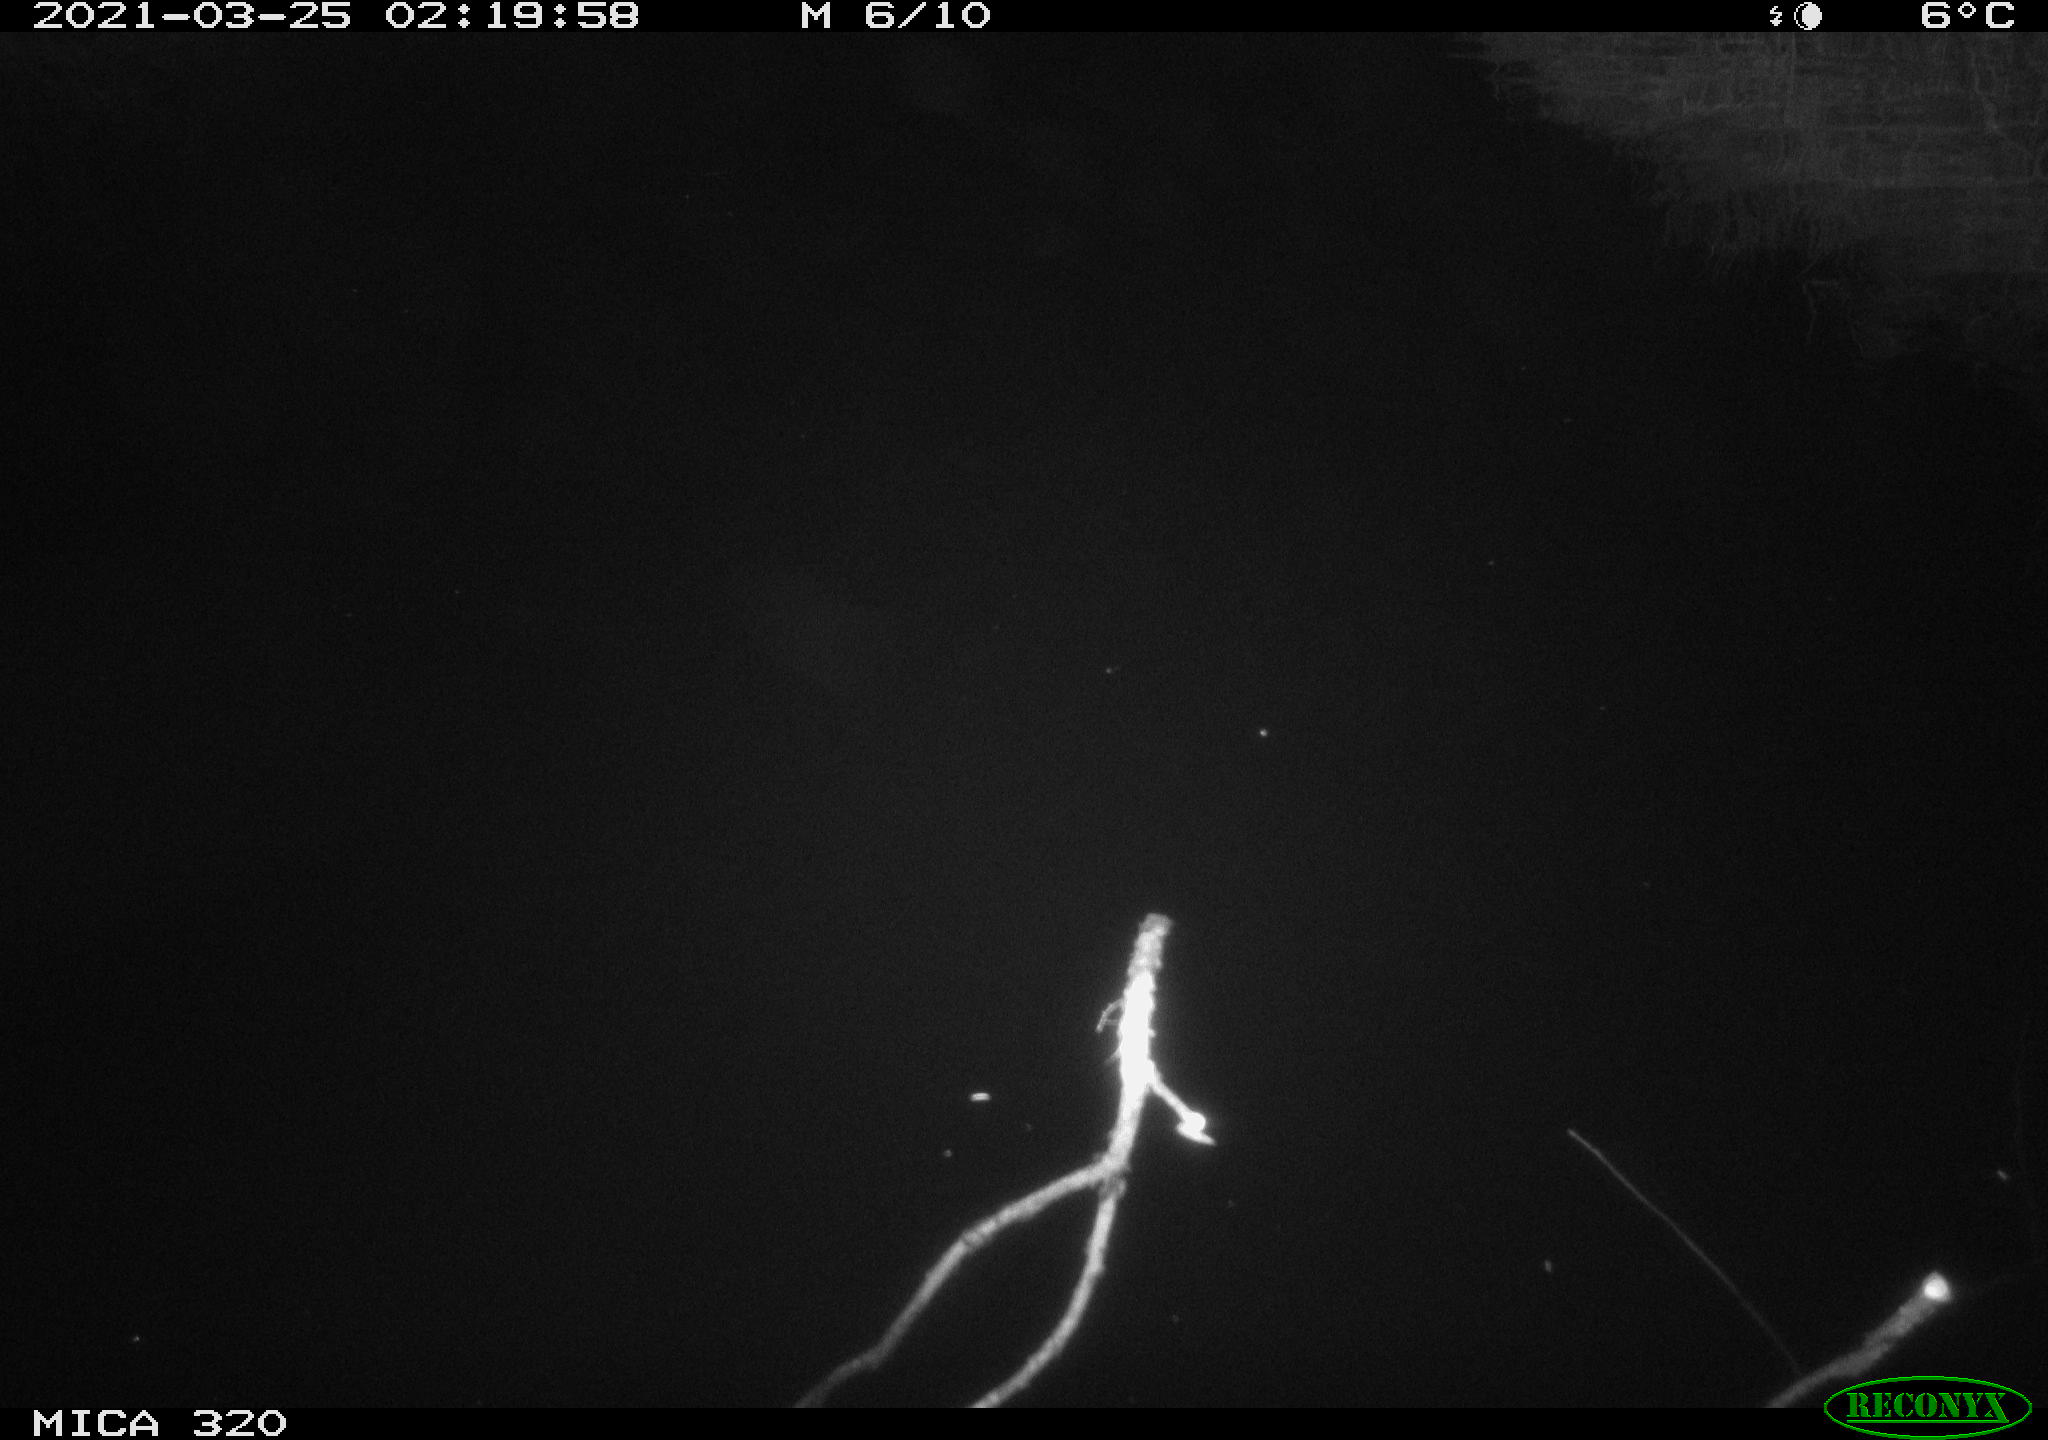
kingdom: Animalia
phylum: Chordata
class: Aves
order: Gruiformes
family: Rallidae
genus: Gallinula
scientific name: Gallinula chloropus
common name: Common moorhen
